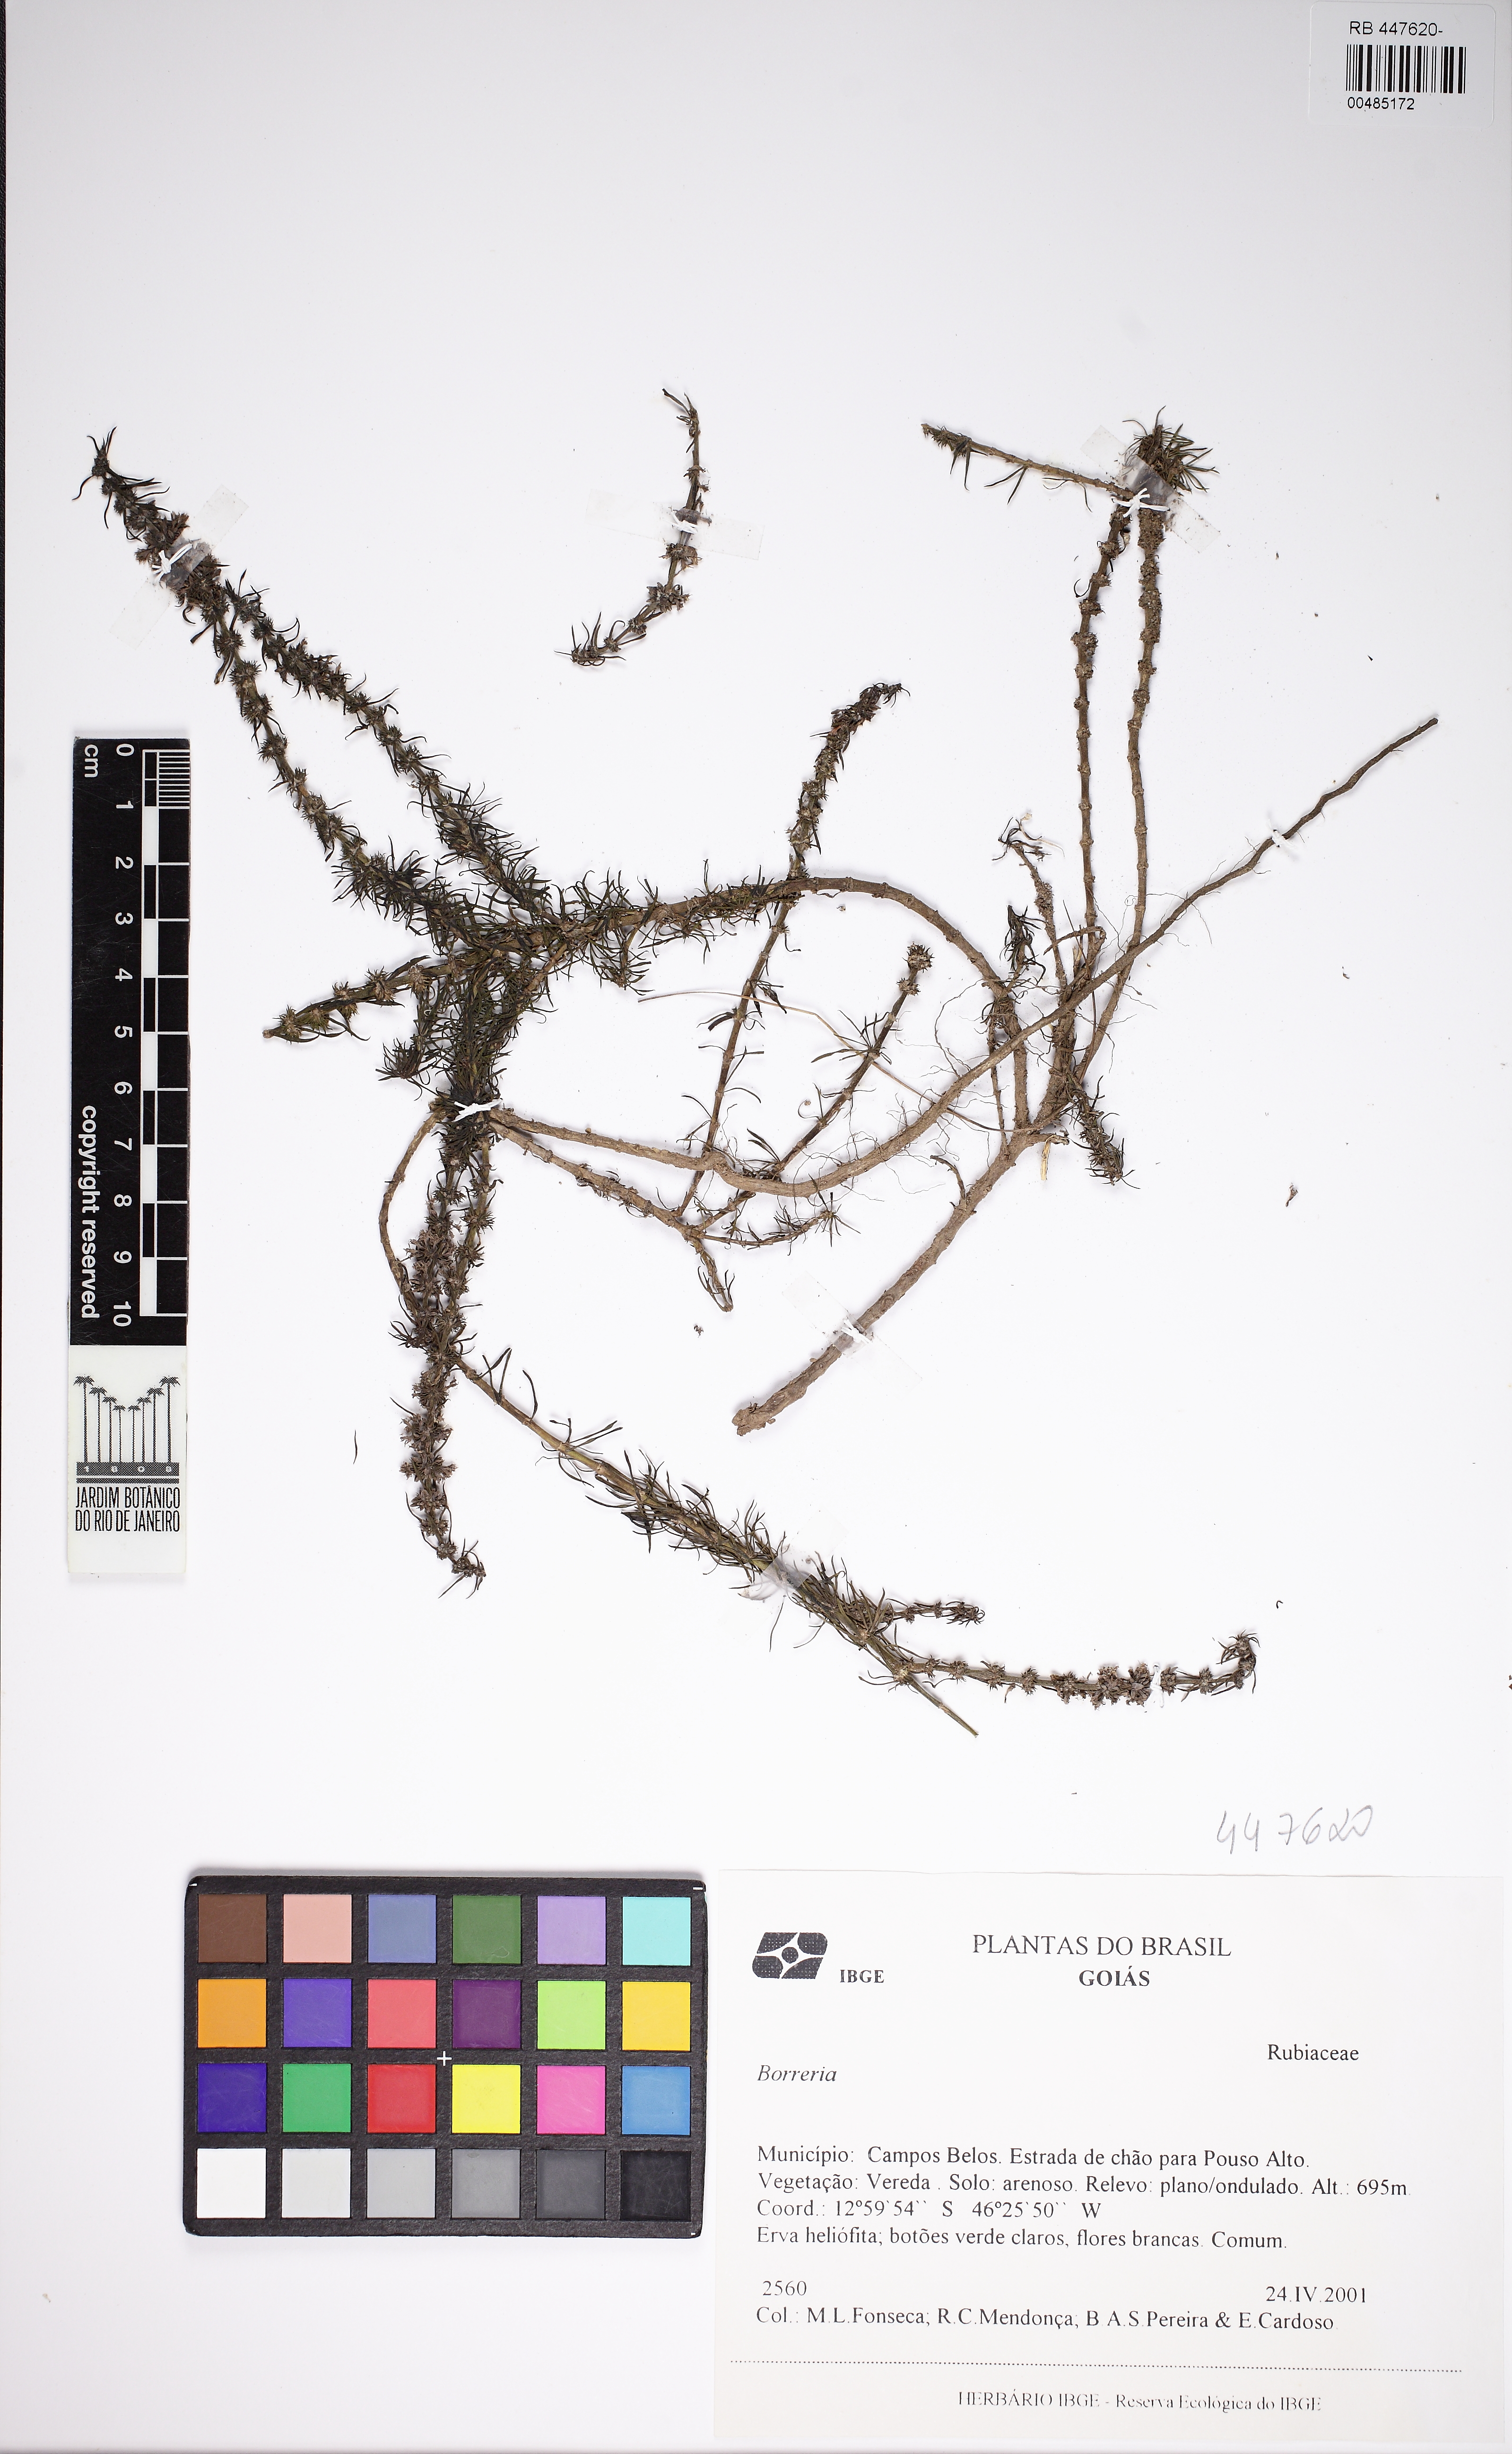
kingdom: Plantae
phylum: Tracheophyta
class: Magnoliopsida
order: Gentianales
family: Rubiaceae
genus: Staelia
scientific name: Staelia virgata
